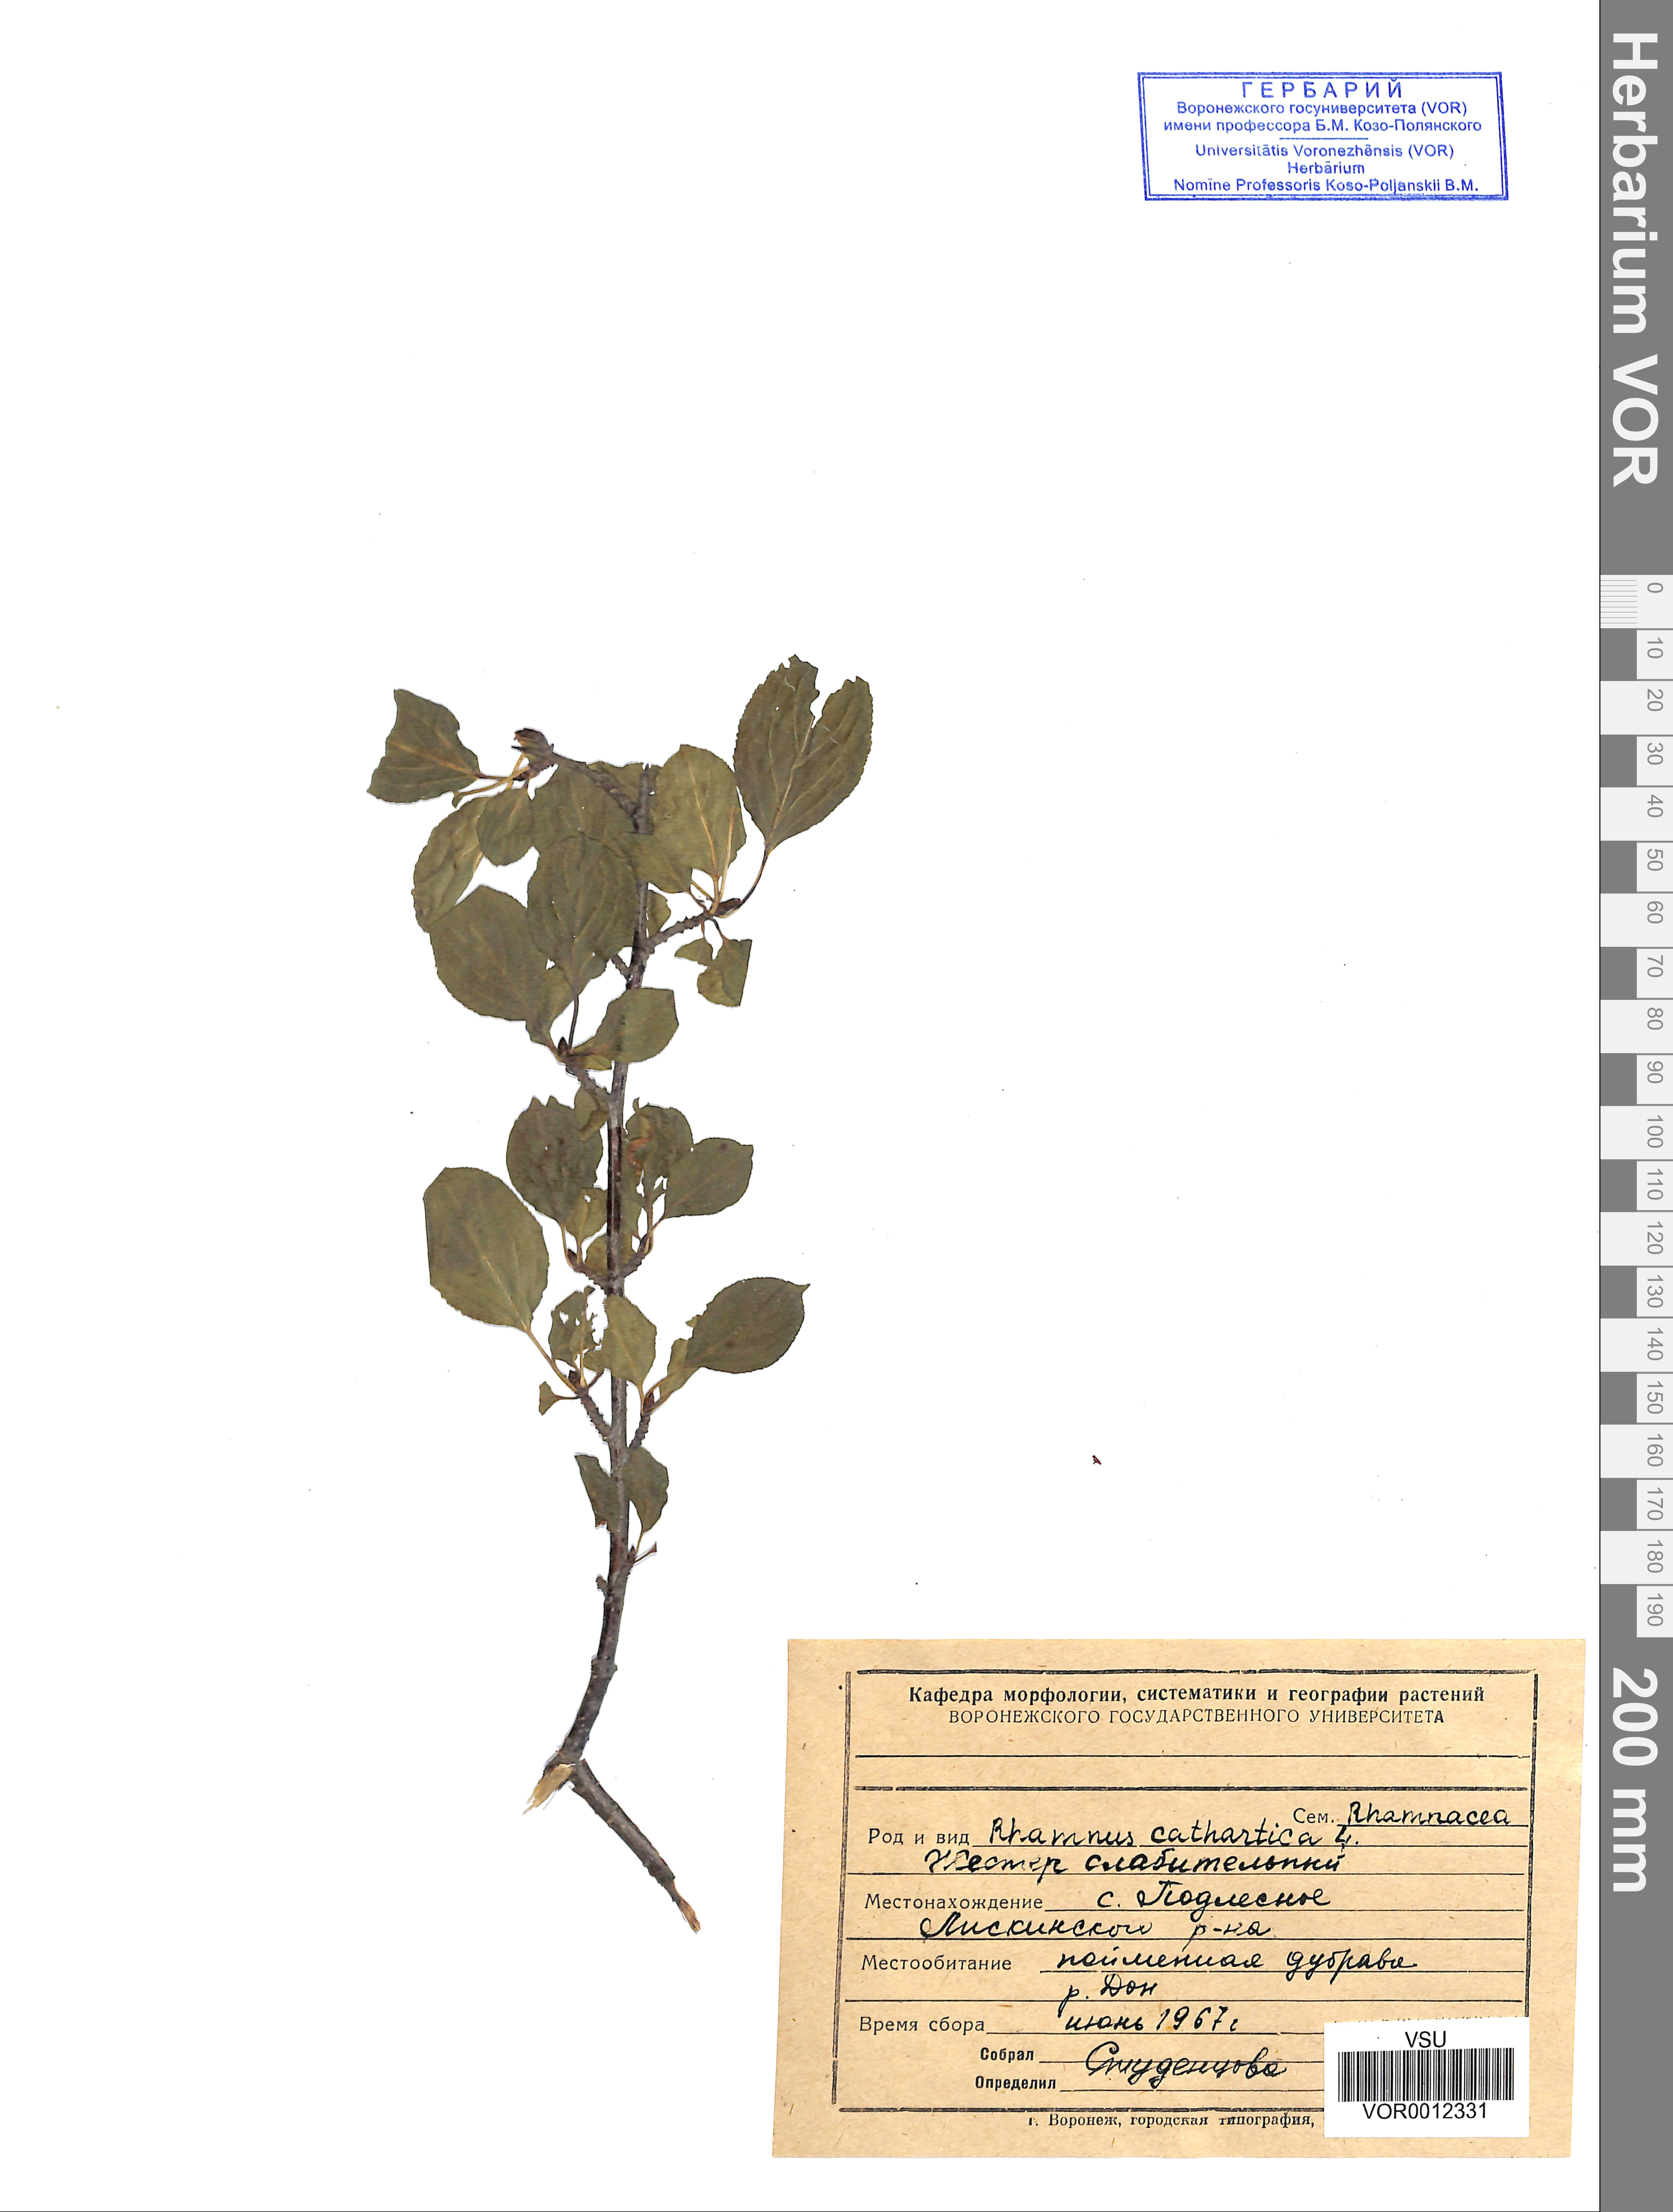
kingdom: Plantae
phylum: Tracheophyta
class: Magnoliopsida
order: Rosales
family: Rhamnaceae
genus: Rhamnus
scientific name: Rhamnus cathartica
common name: Common buckthorn
